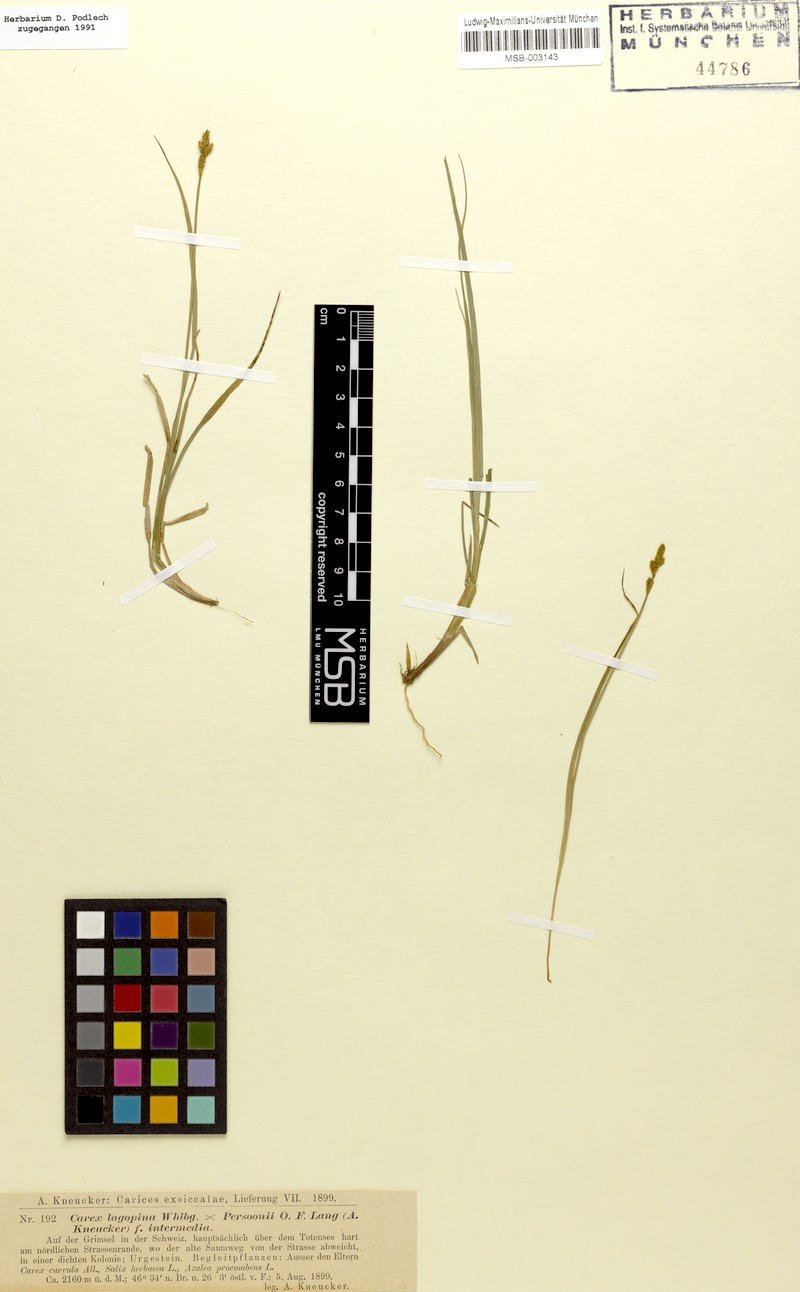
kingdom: Plantae
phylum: Tracheophyta
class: Liliopsida
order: Poales
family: Cyperaceae
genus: Carex
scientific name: Carex
